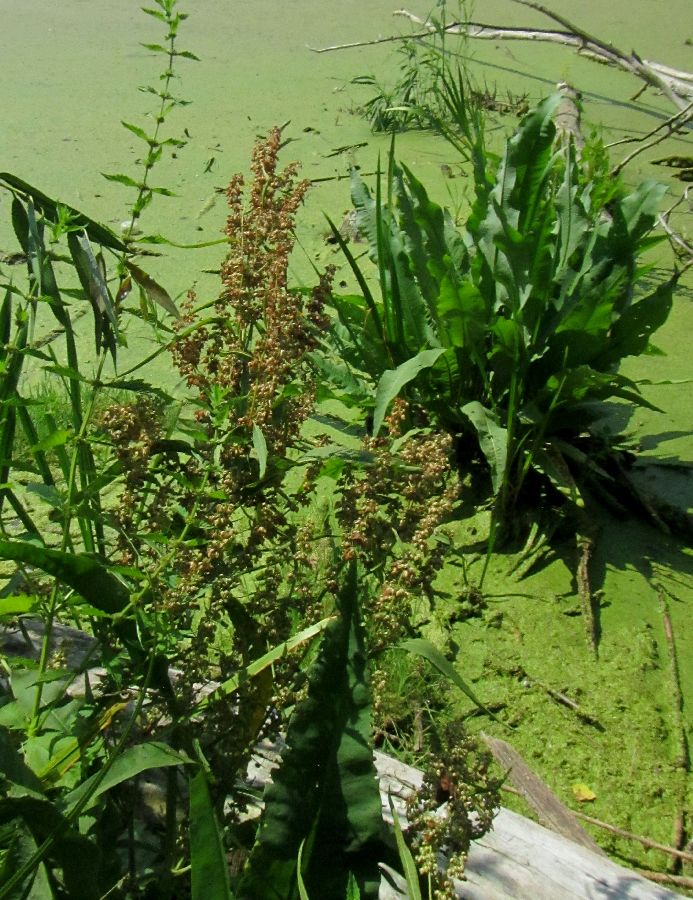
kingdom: Plantae
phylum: Tracheophyta
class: Magnoliopsida
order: Caryophyllales
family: Polygonaceae
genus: Rumex
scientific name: Rumex hydrolapathum
